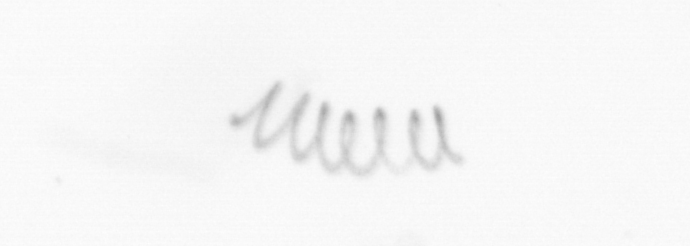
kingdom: Chromista
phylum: Ochrophyta
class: Bacillariophyceae
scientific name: Bacillariophyceae
